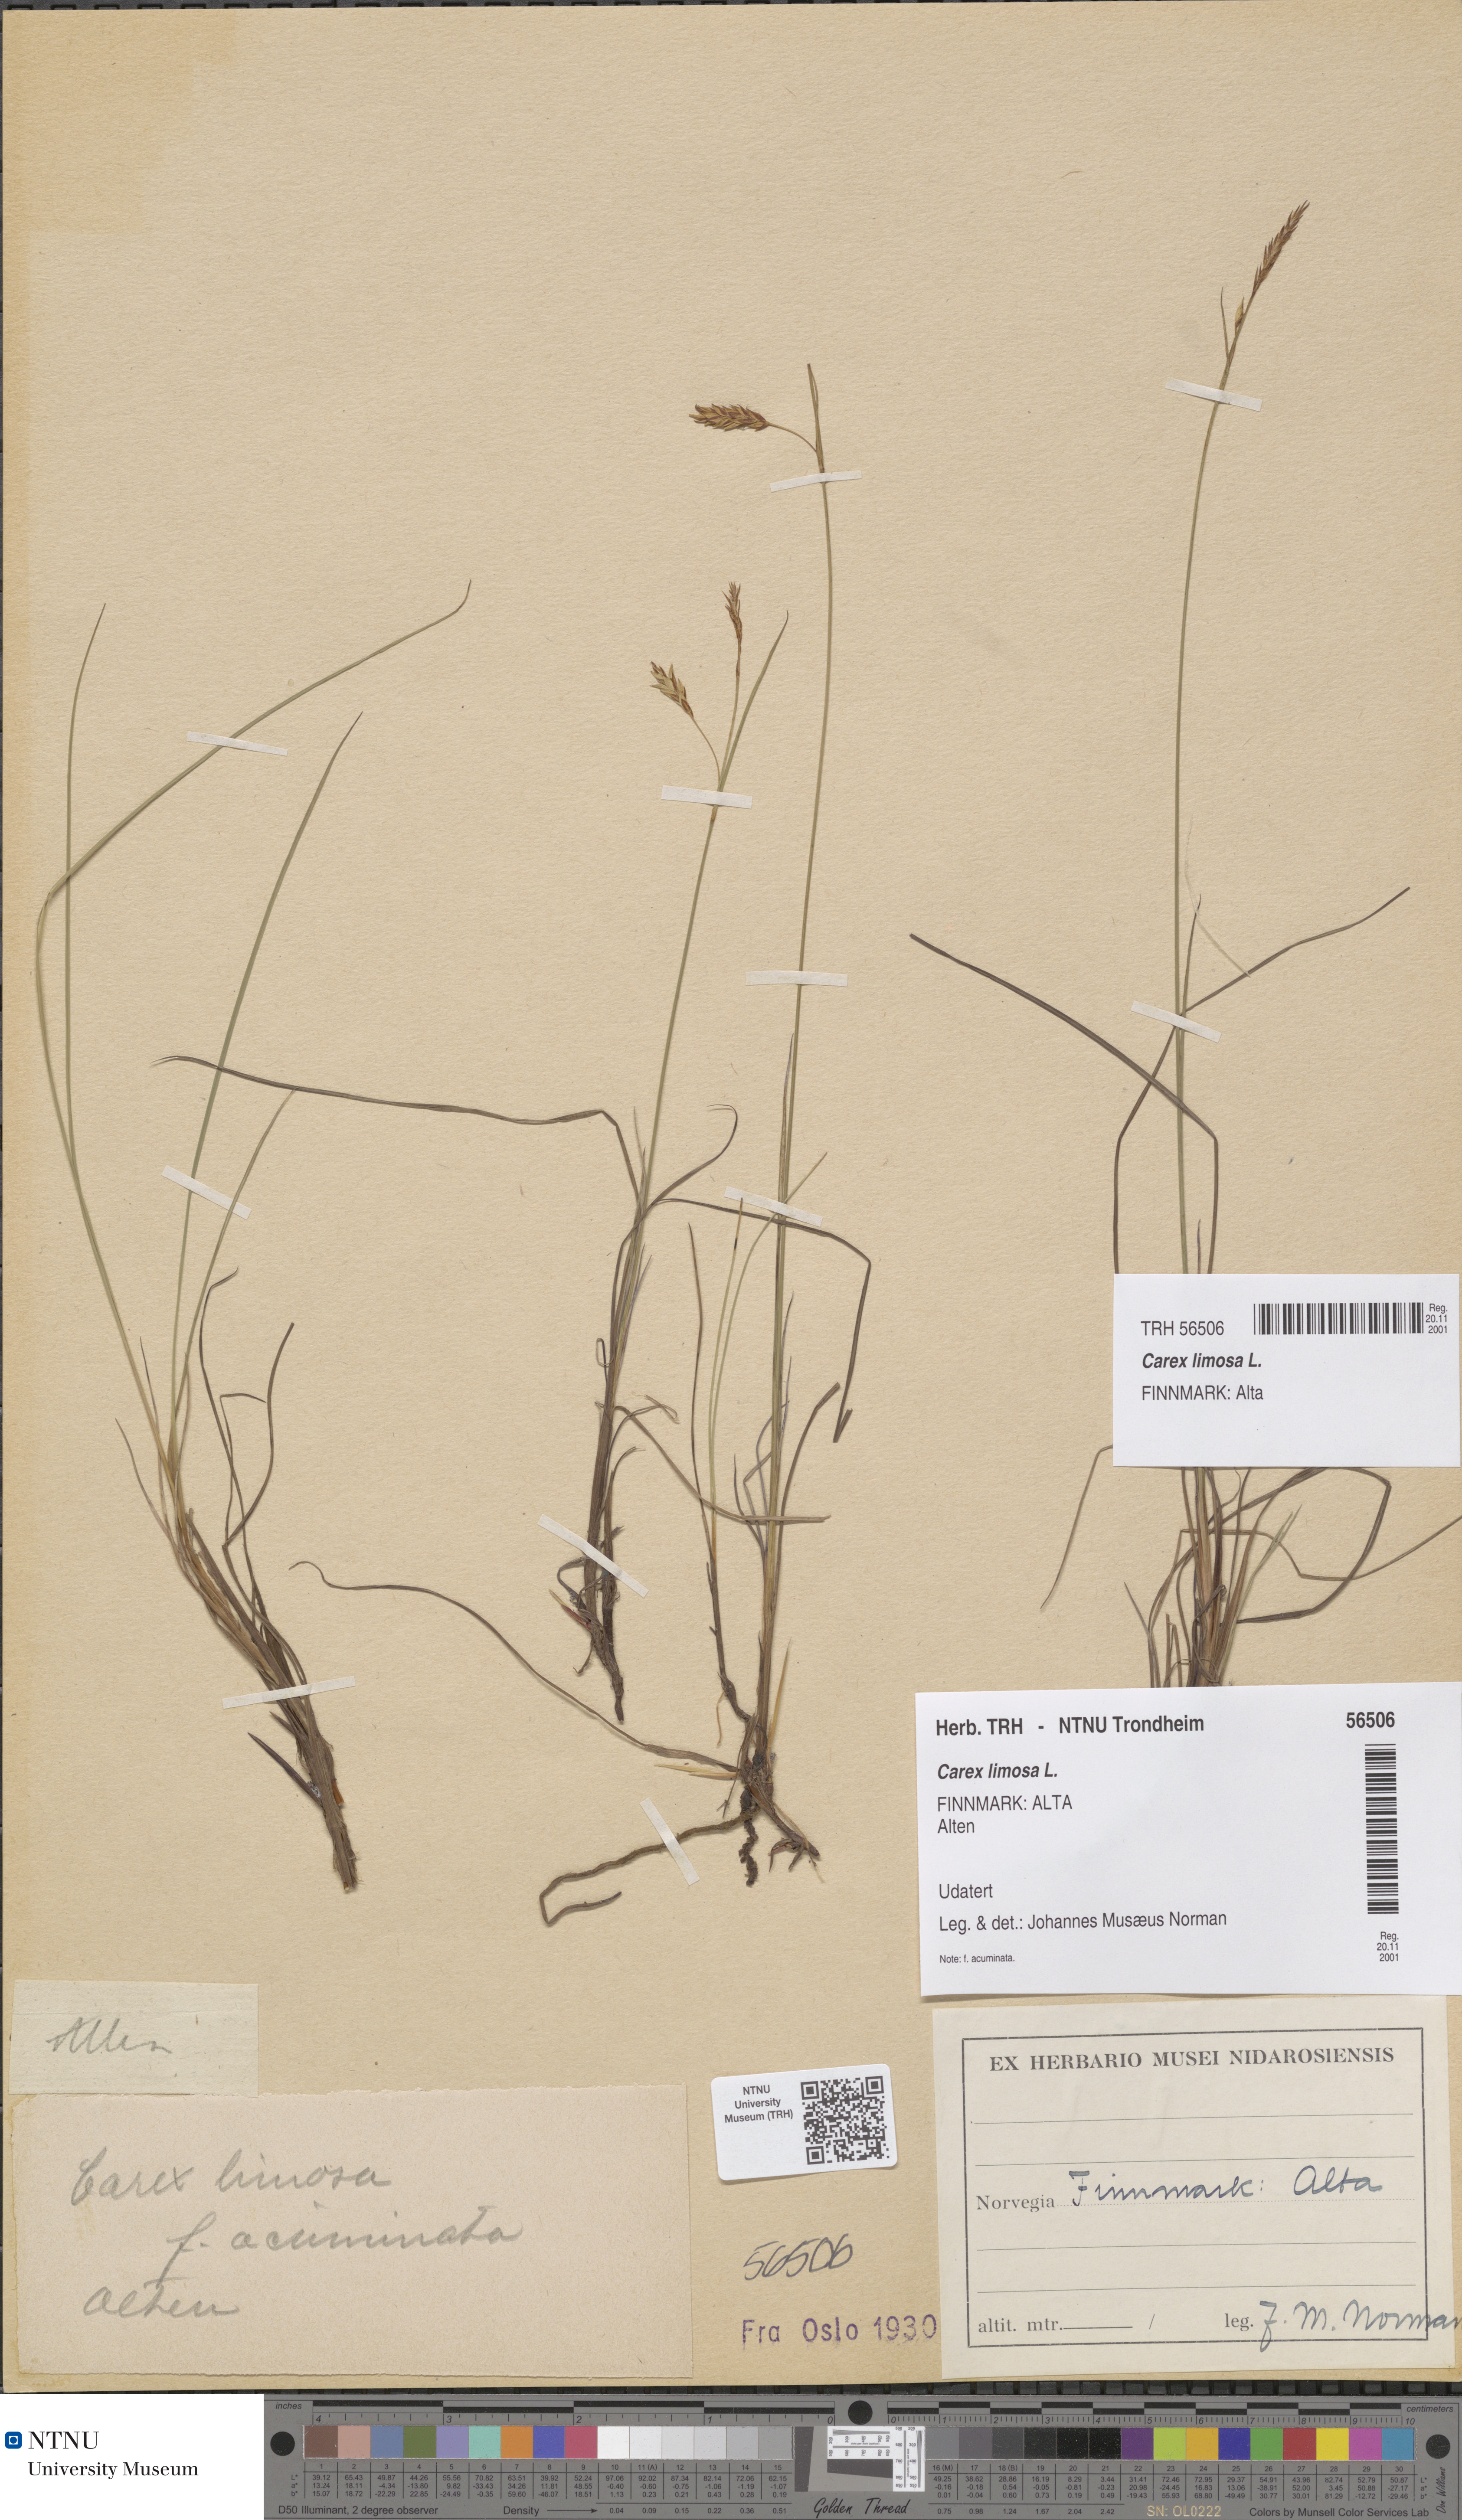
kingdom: Plantae
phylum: Tracheophyta
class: Liliopsida
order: Poales
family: Cyperaceae
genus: Carex
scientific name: Carex limosa
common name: Bog sedge
